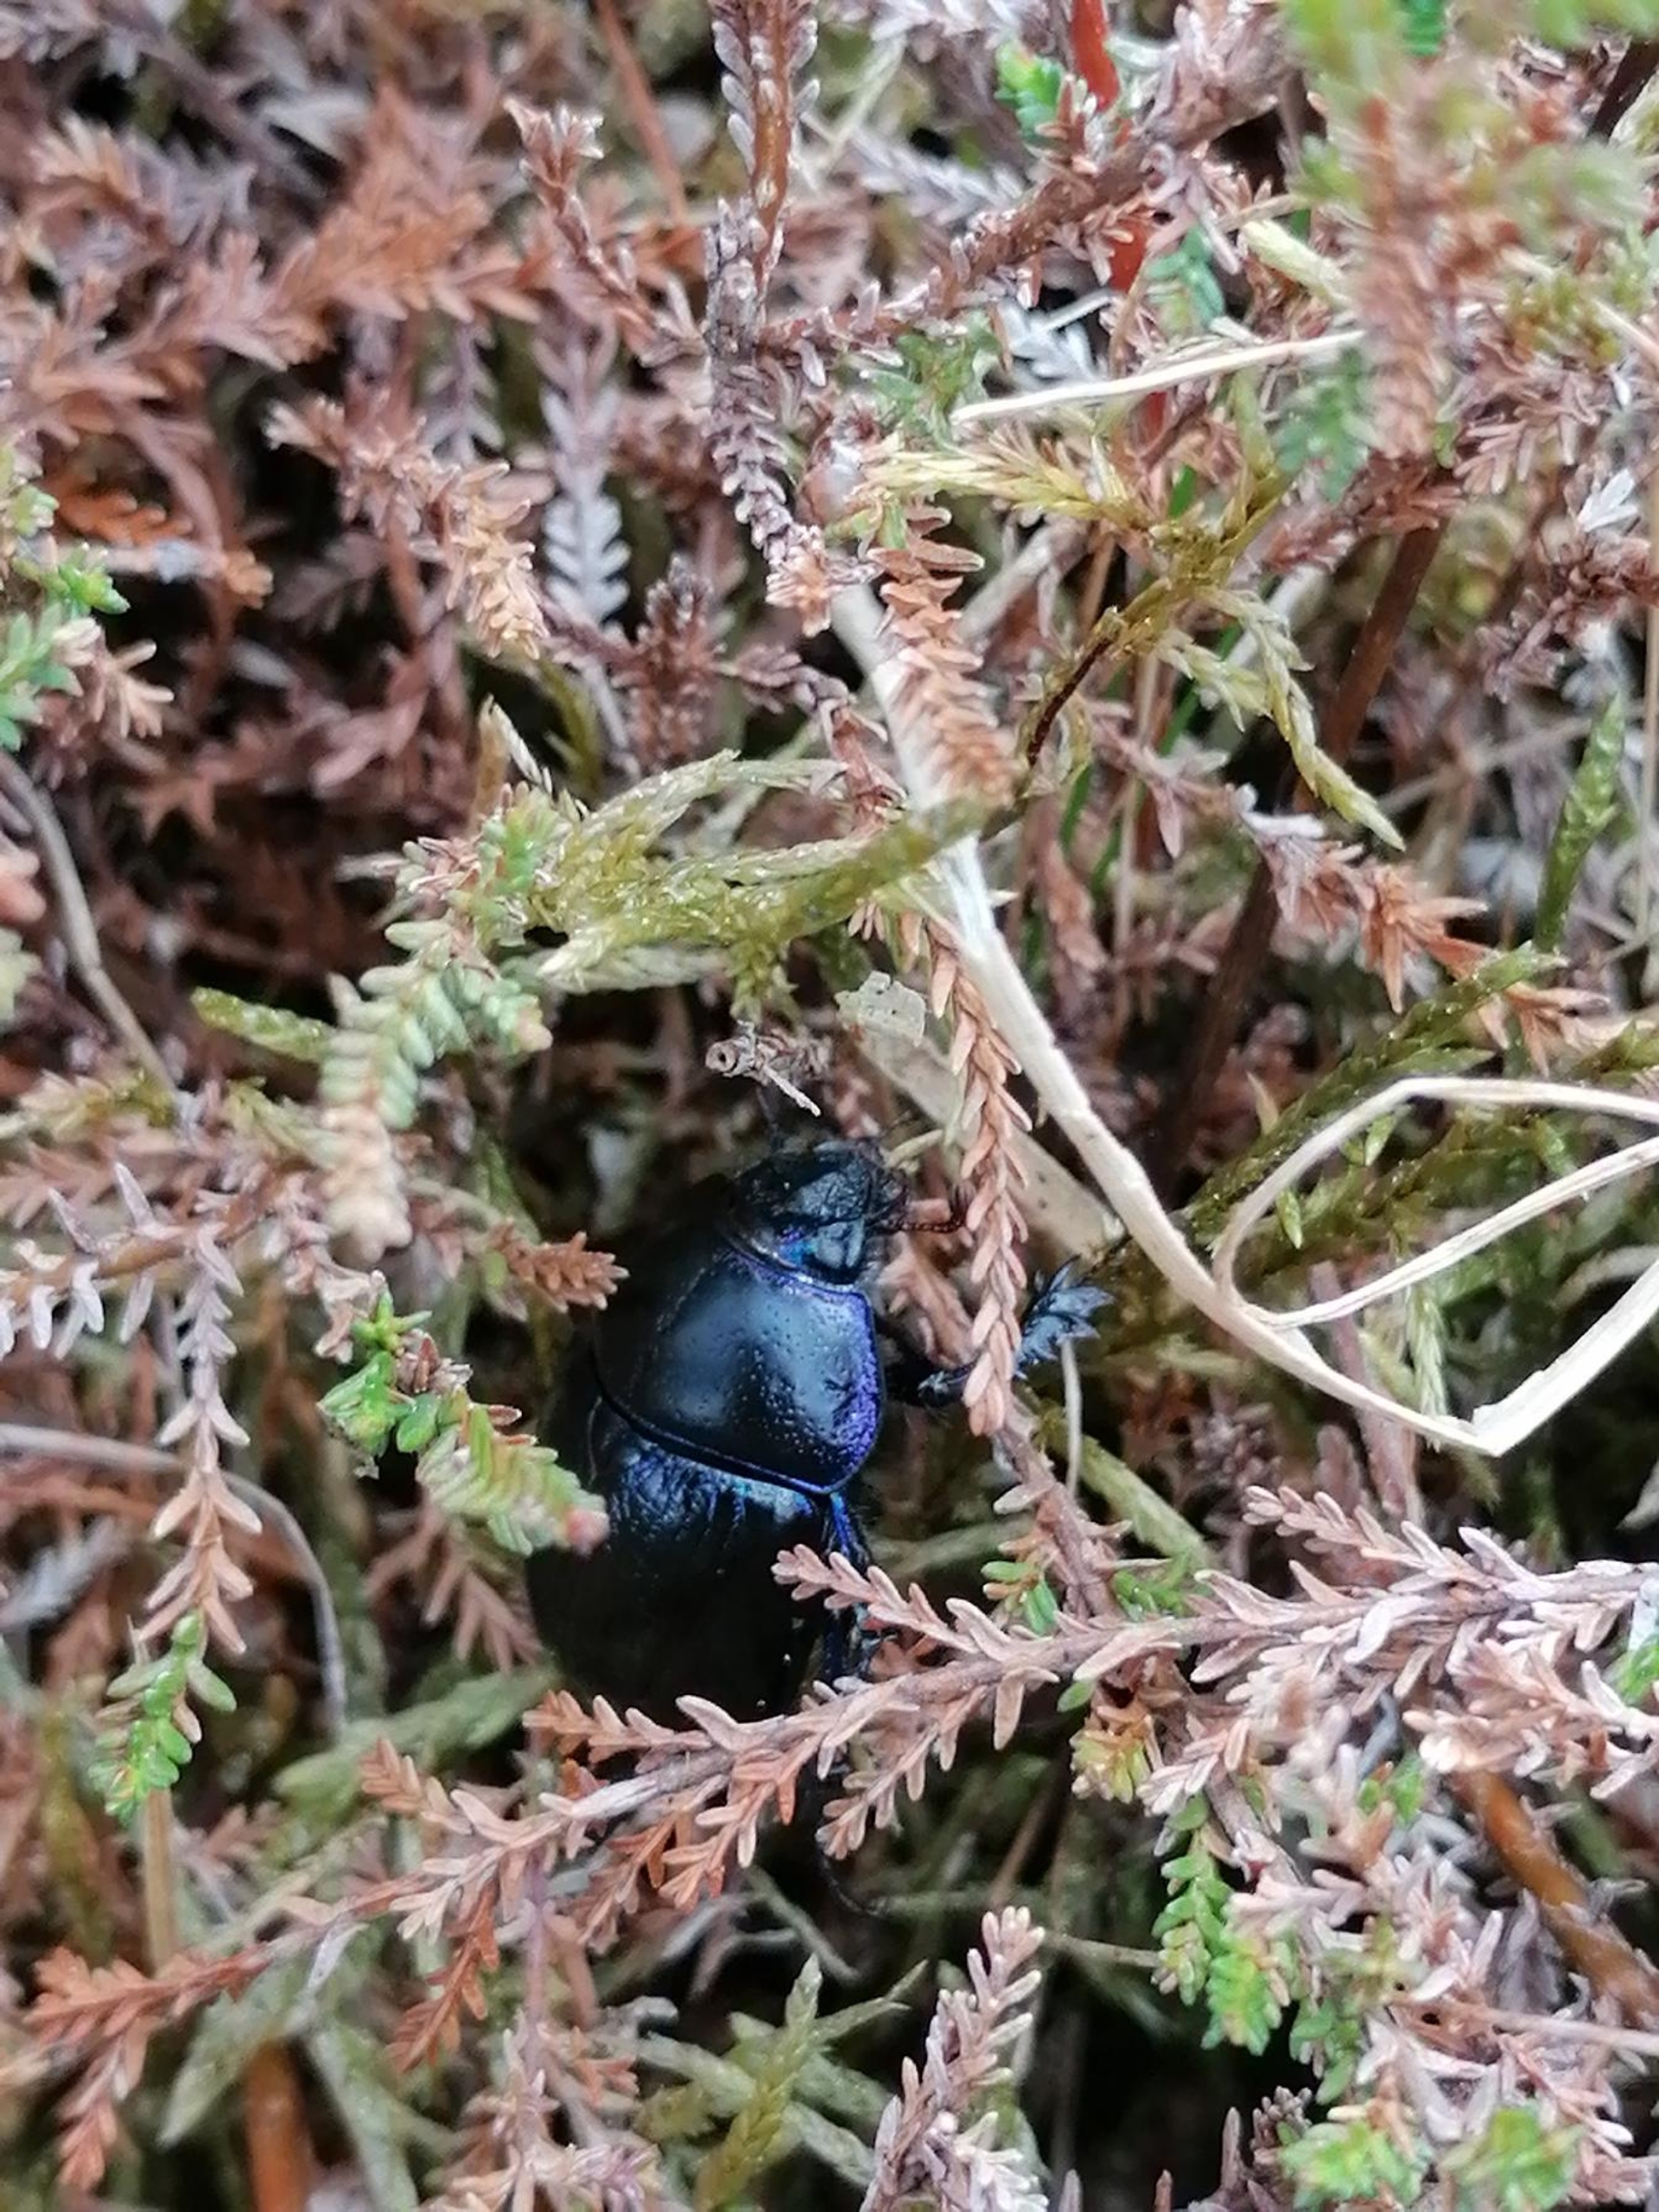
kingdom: Animalia
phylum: Arthropoda
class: Insecta
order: Coleoptera
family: Geotrupidae
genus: Anoplotrupes
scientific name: Anoplotrupes stercorosus
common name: Skovskarnbasse
